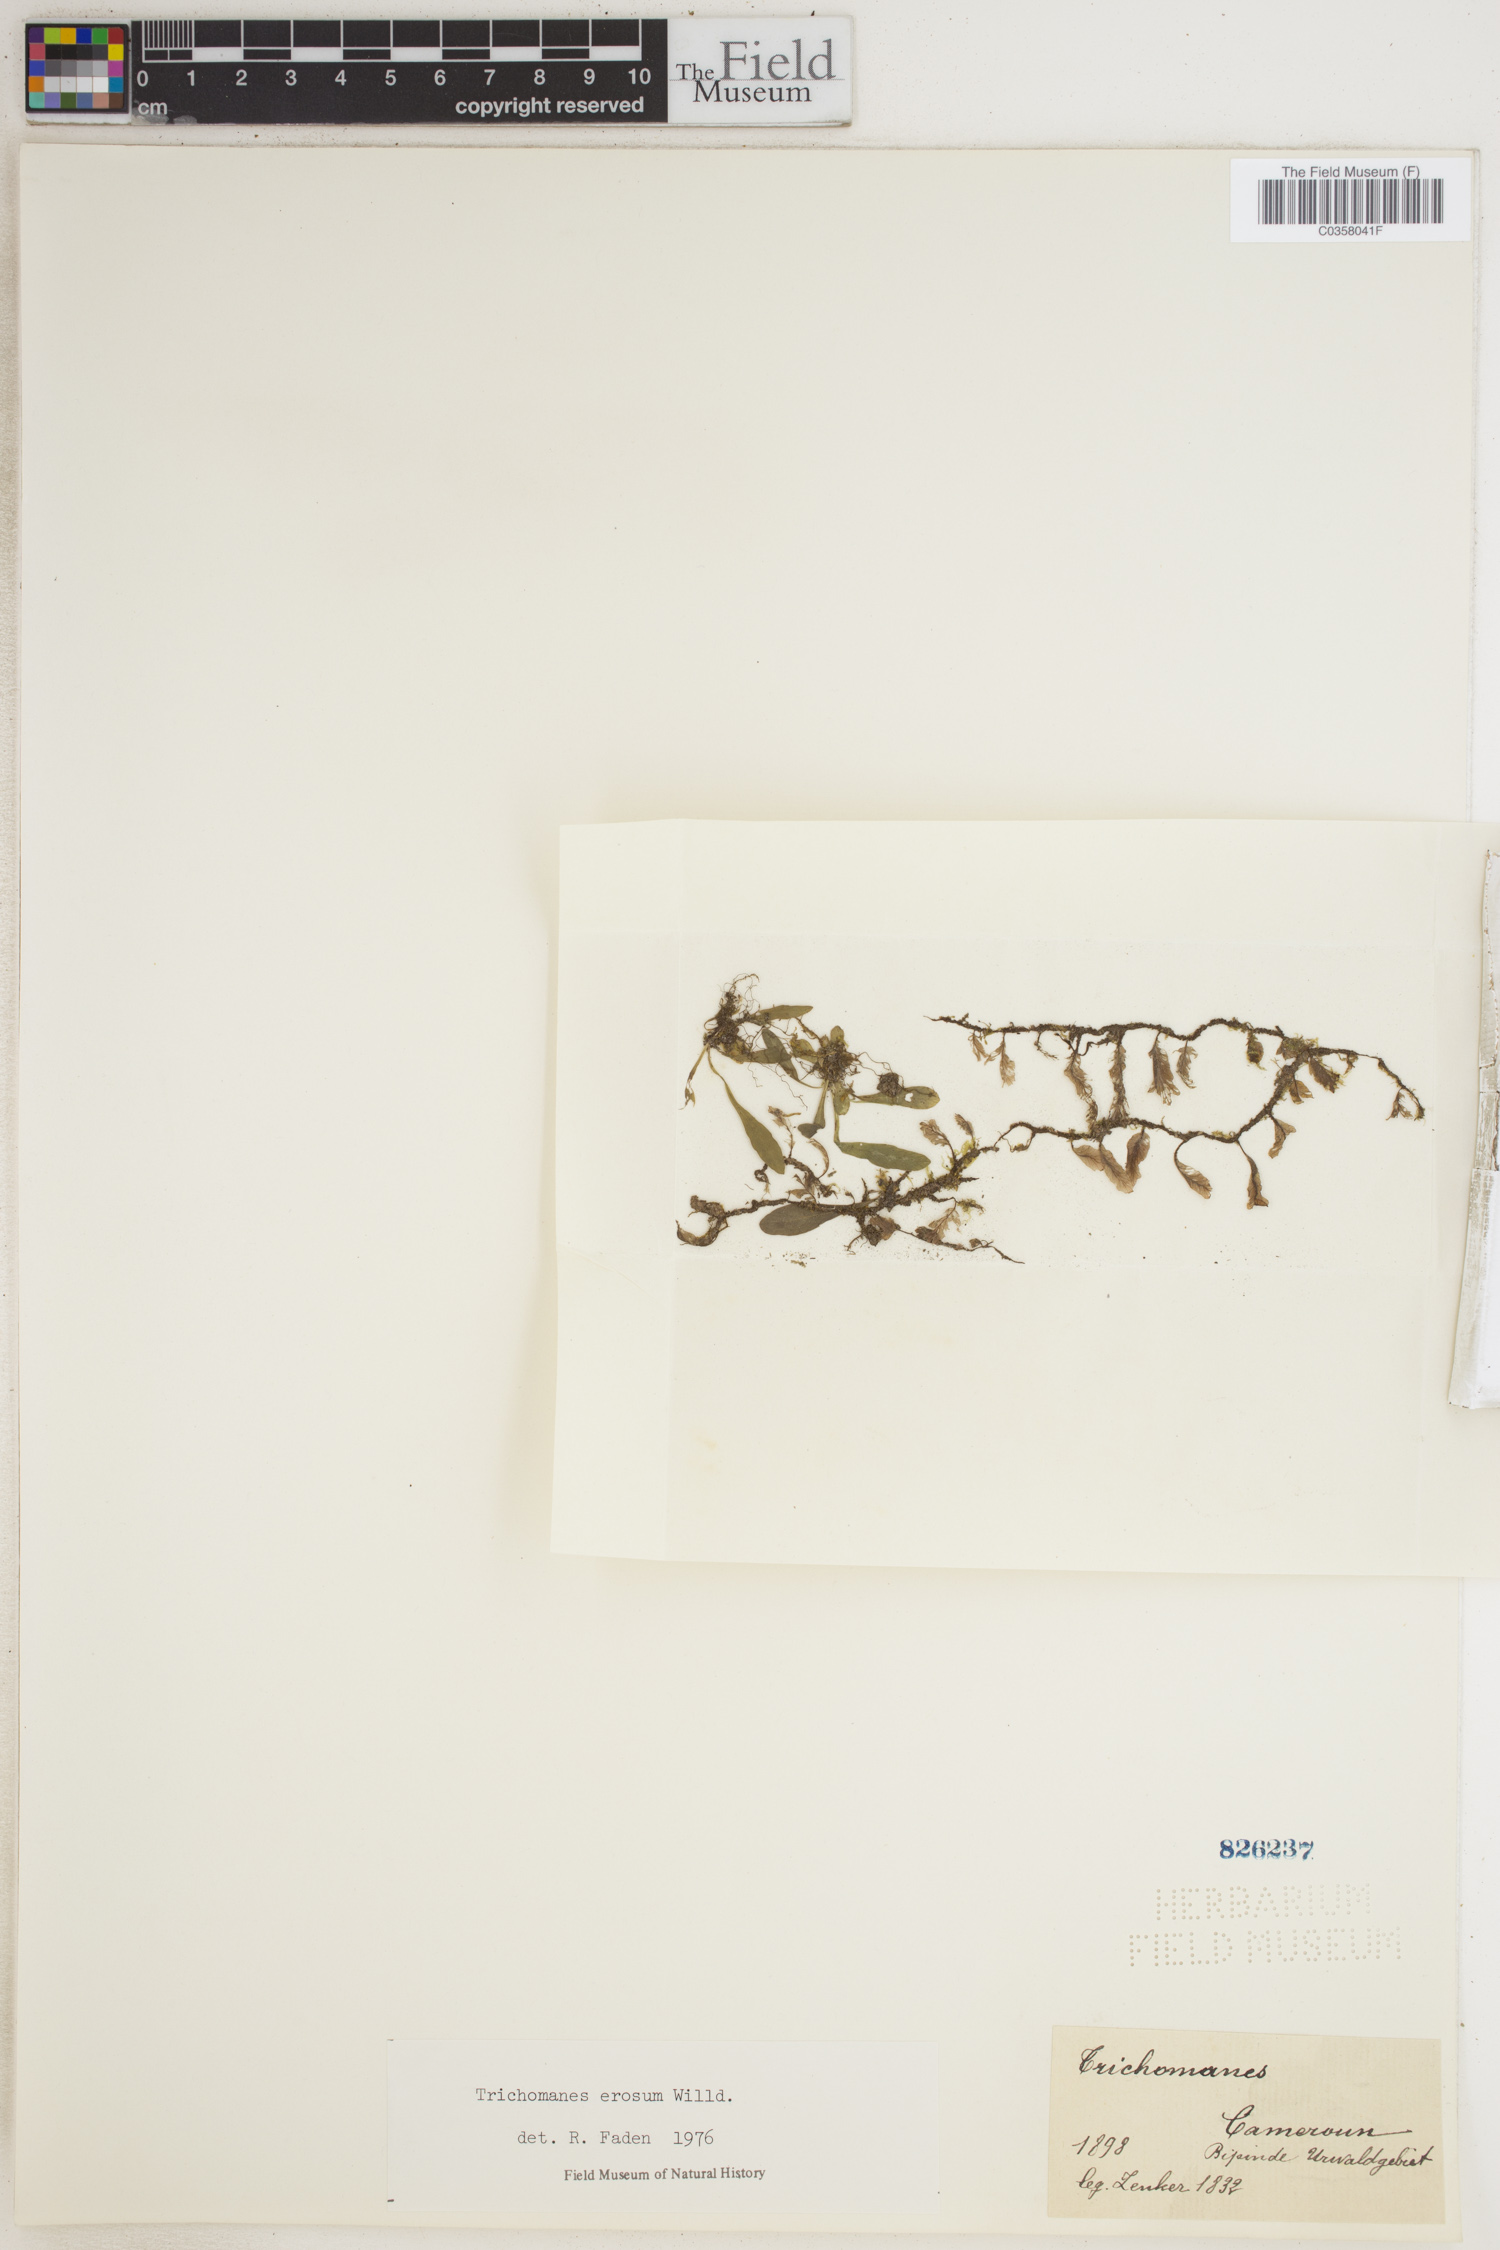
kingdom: Plantae
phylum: Tracheophyta
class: Polypodiopsida
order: Hymenophyllales
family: Hymenophyllaceae
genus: Didymoglossum
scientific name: Didymoglossum erosum
